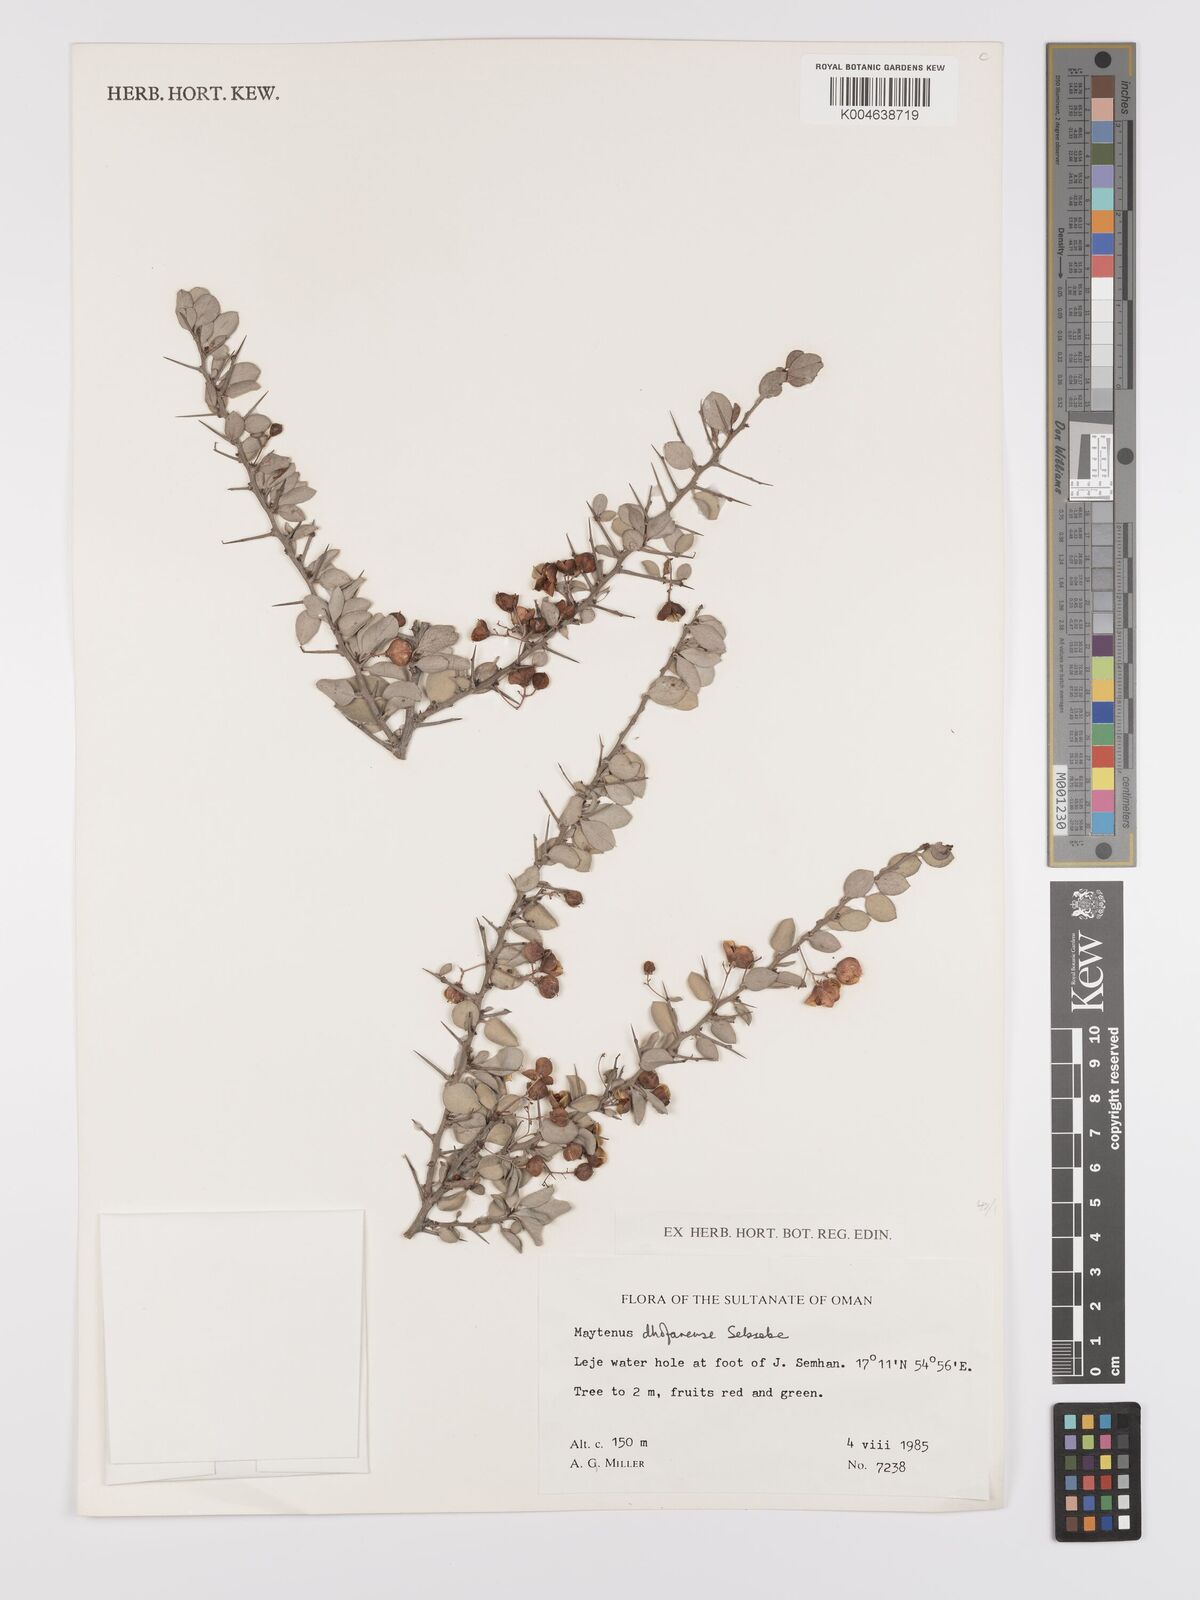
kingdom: Plantae
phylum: Tracheophyta
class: Magnoliopsida
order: Celastrales
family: Celastraceae
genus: Gymnosporia
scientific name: Gymnosporia dhofarensis
